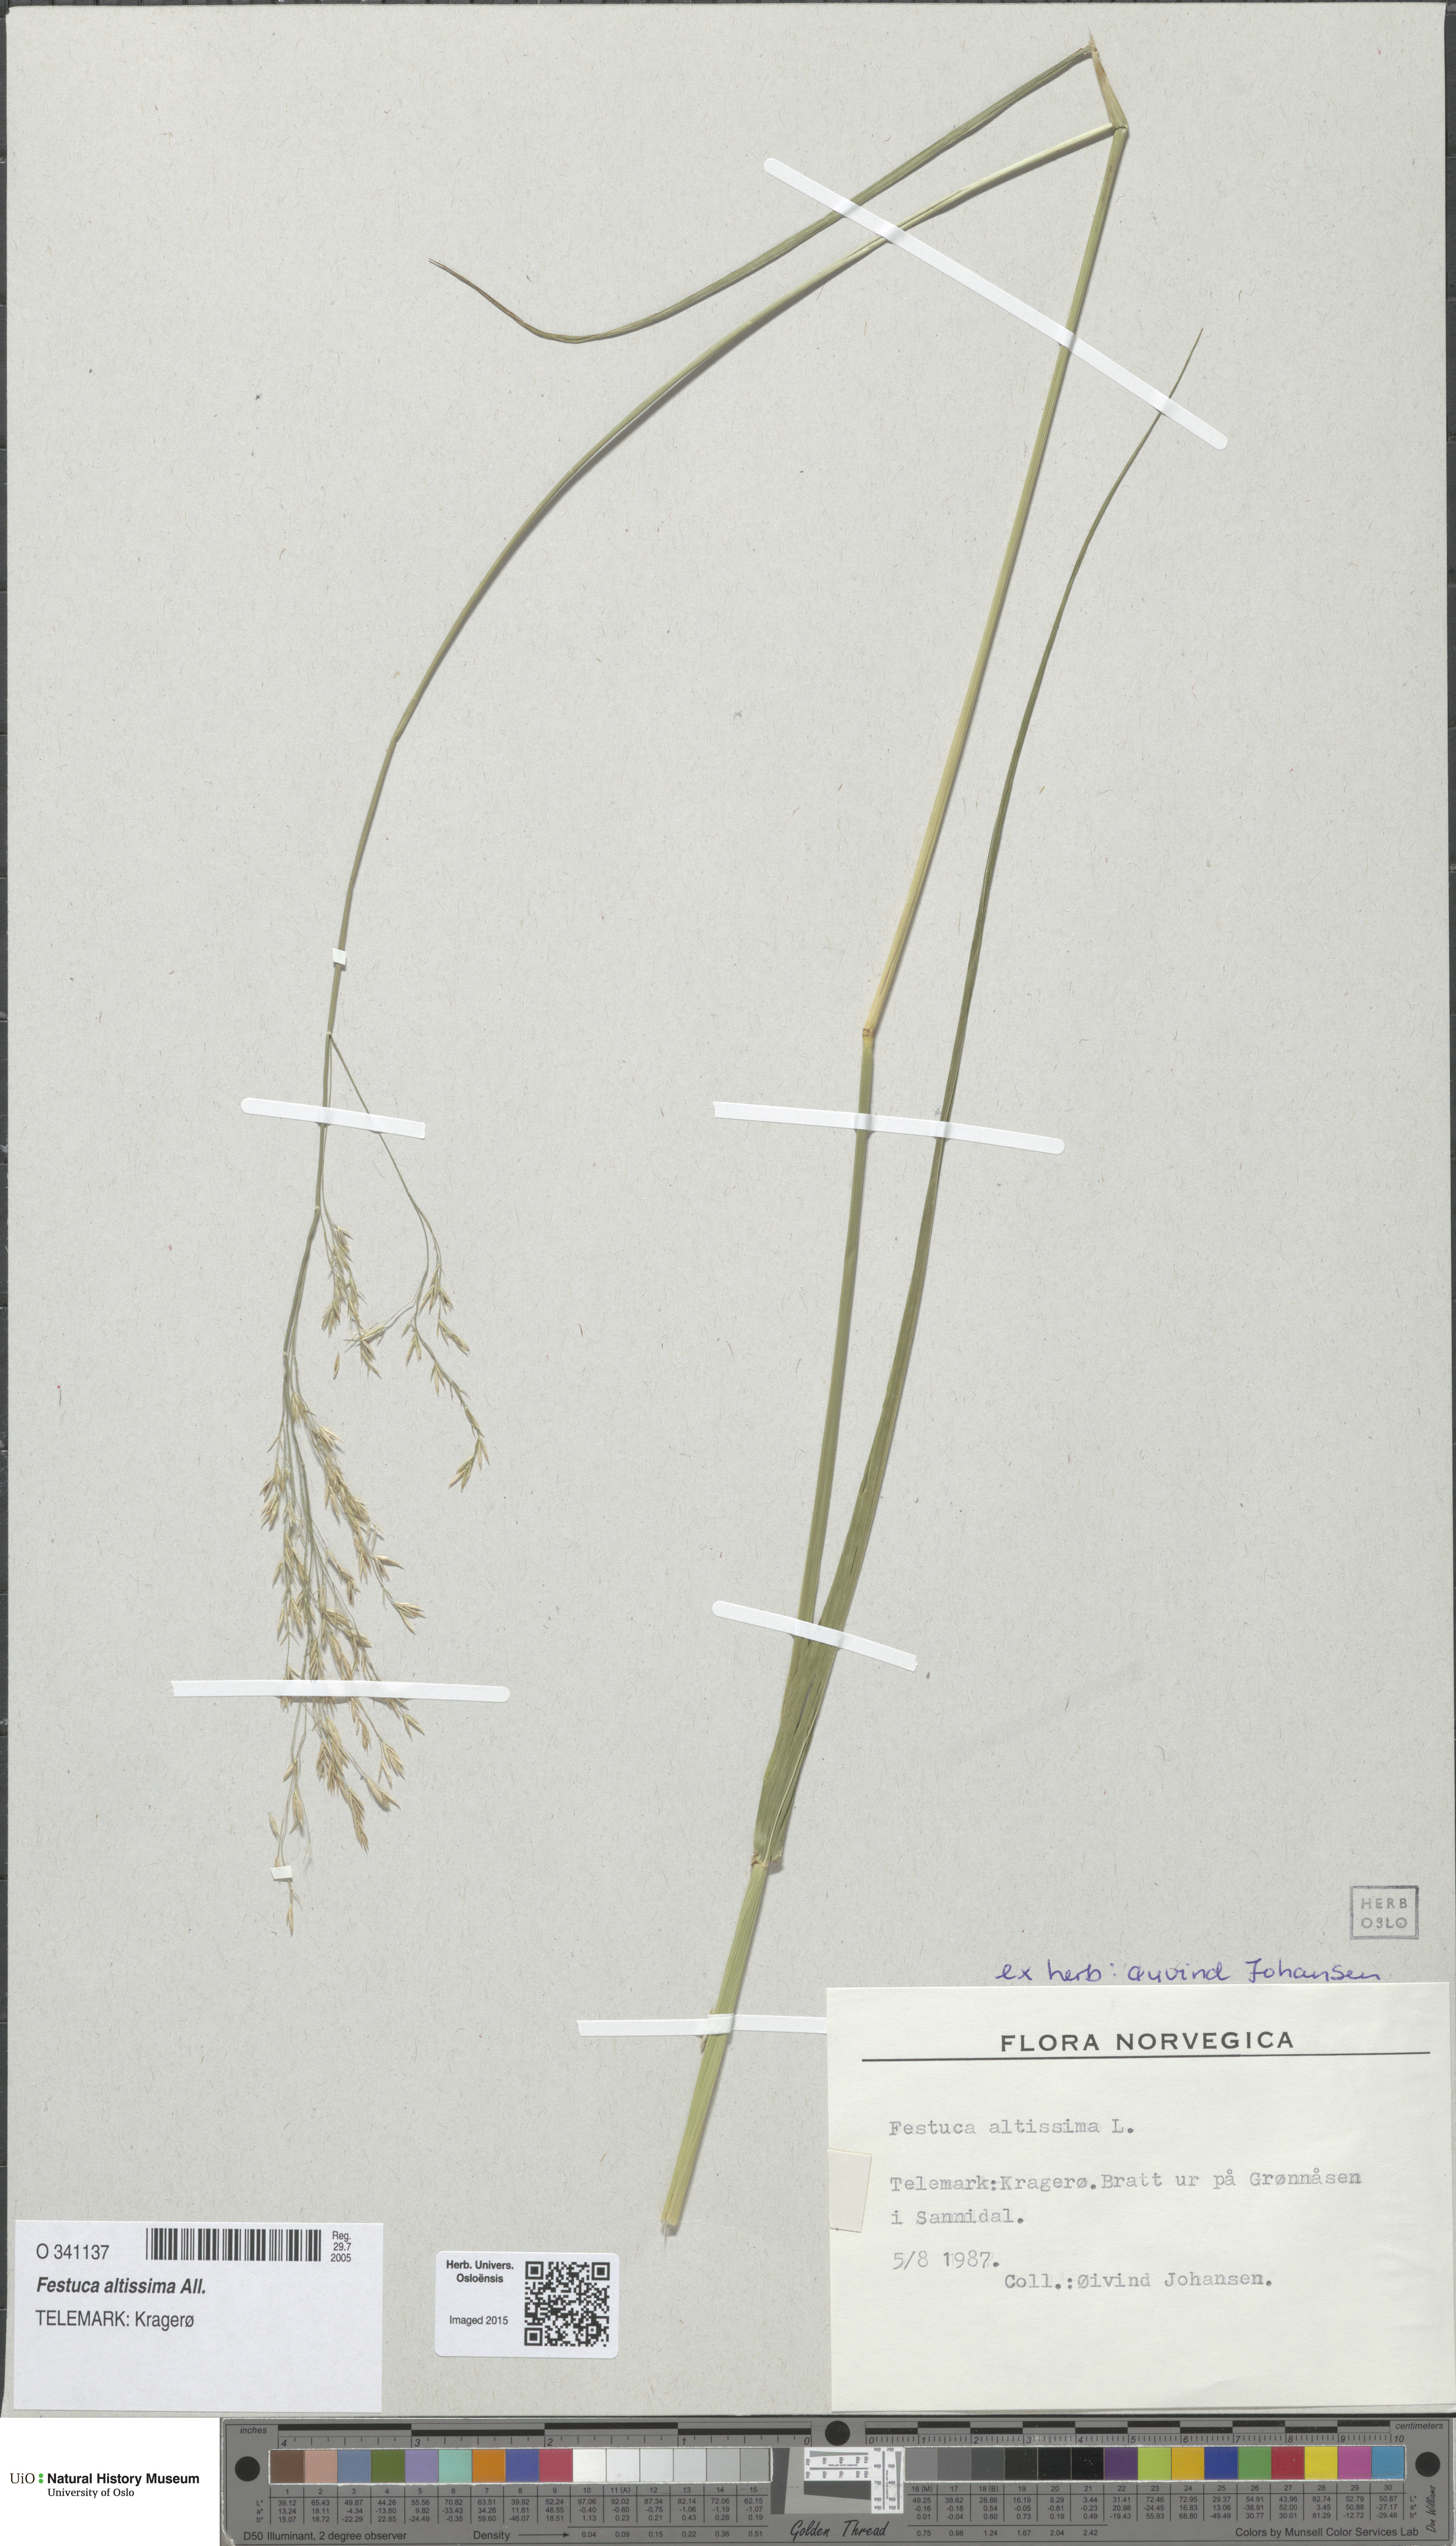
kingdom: Plantae
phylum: Tracheophyta
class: Liliopsida
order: Poales
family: Poaceae
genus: Festuca
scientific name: Festuca altissima
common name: Wood fescue
